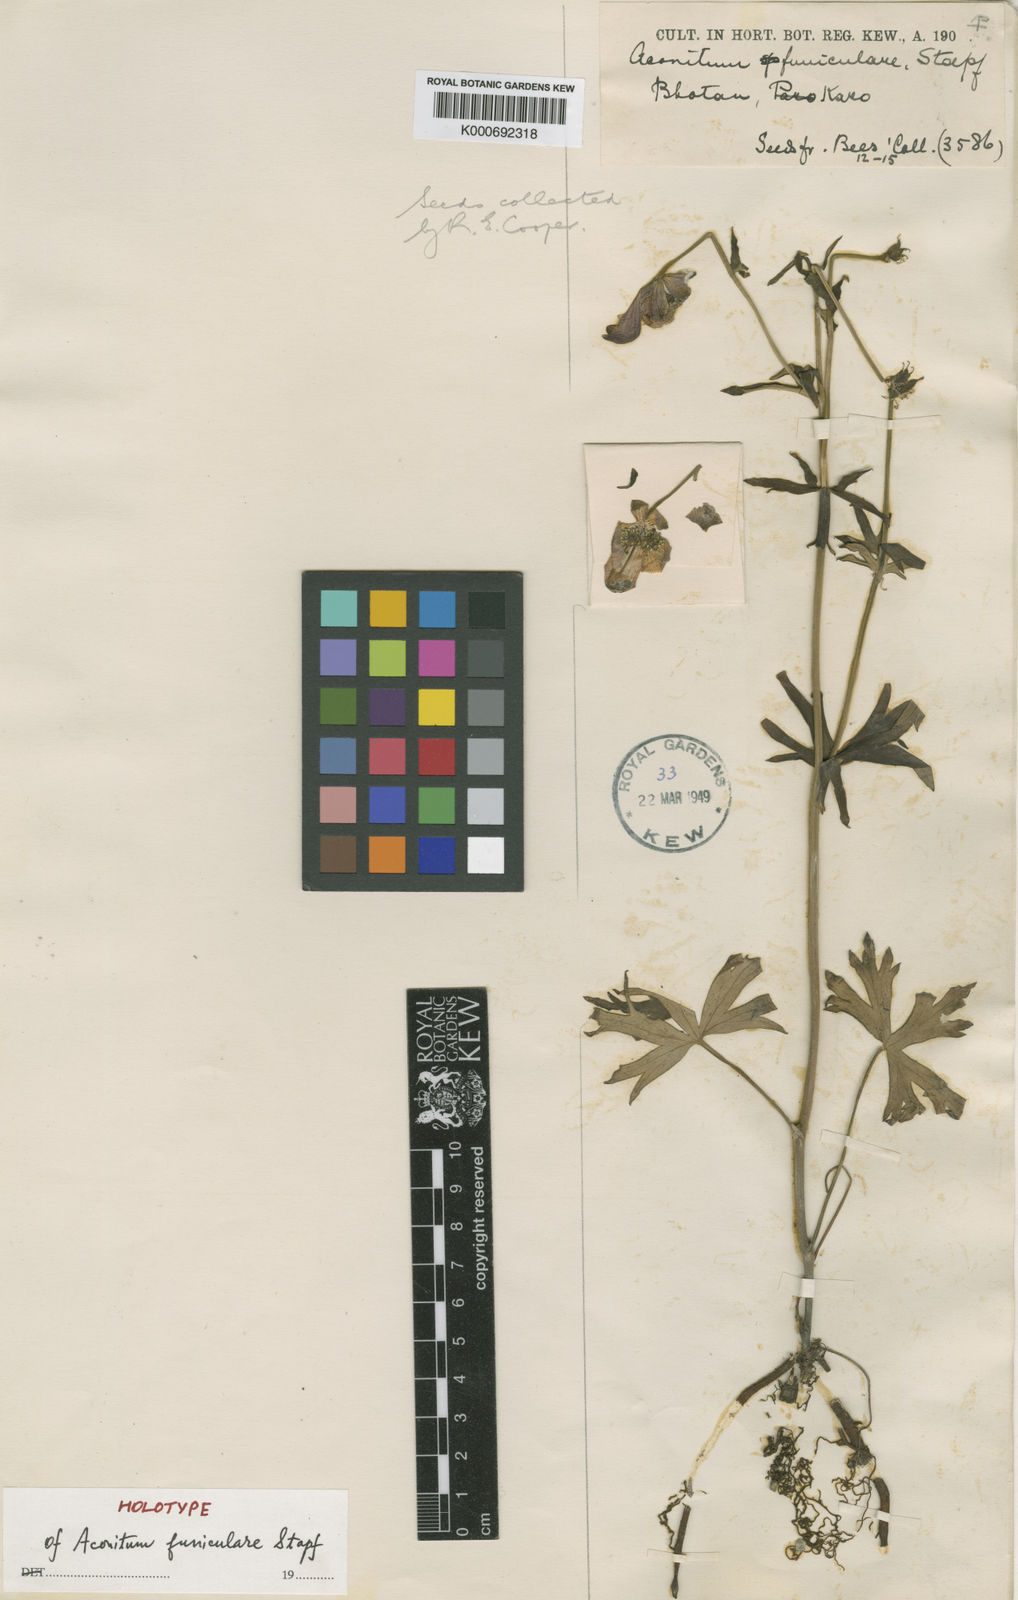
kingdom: Plantae
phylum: Tracheophyta
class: Magnoliopsida
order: Ranunculales
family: Ranunculaceae
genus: Aconitum
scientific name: Aconitum funiculare
